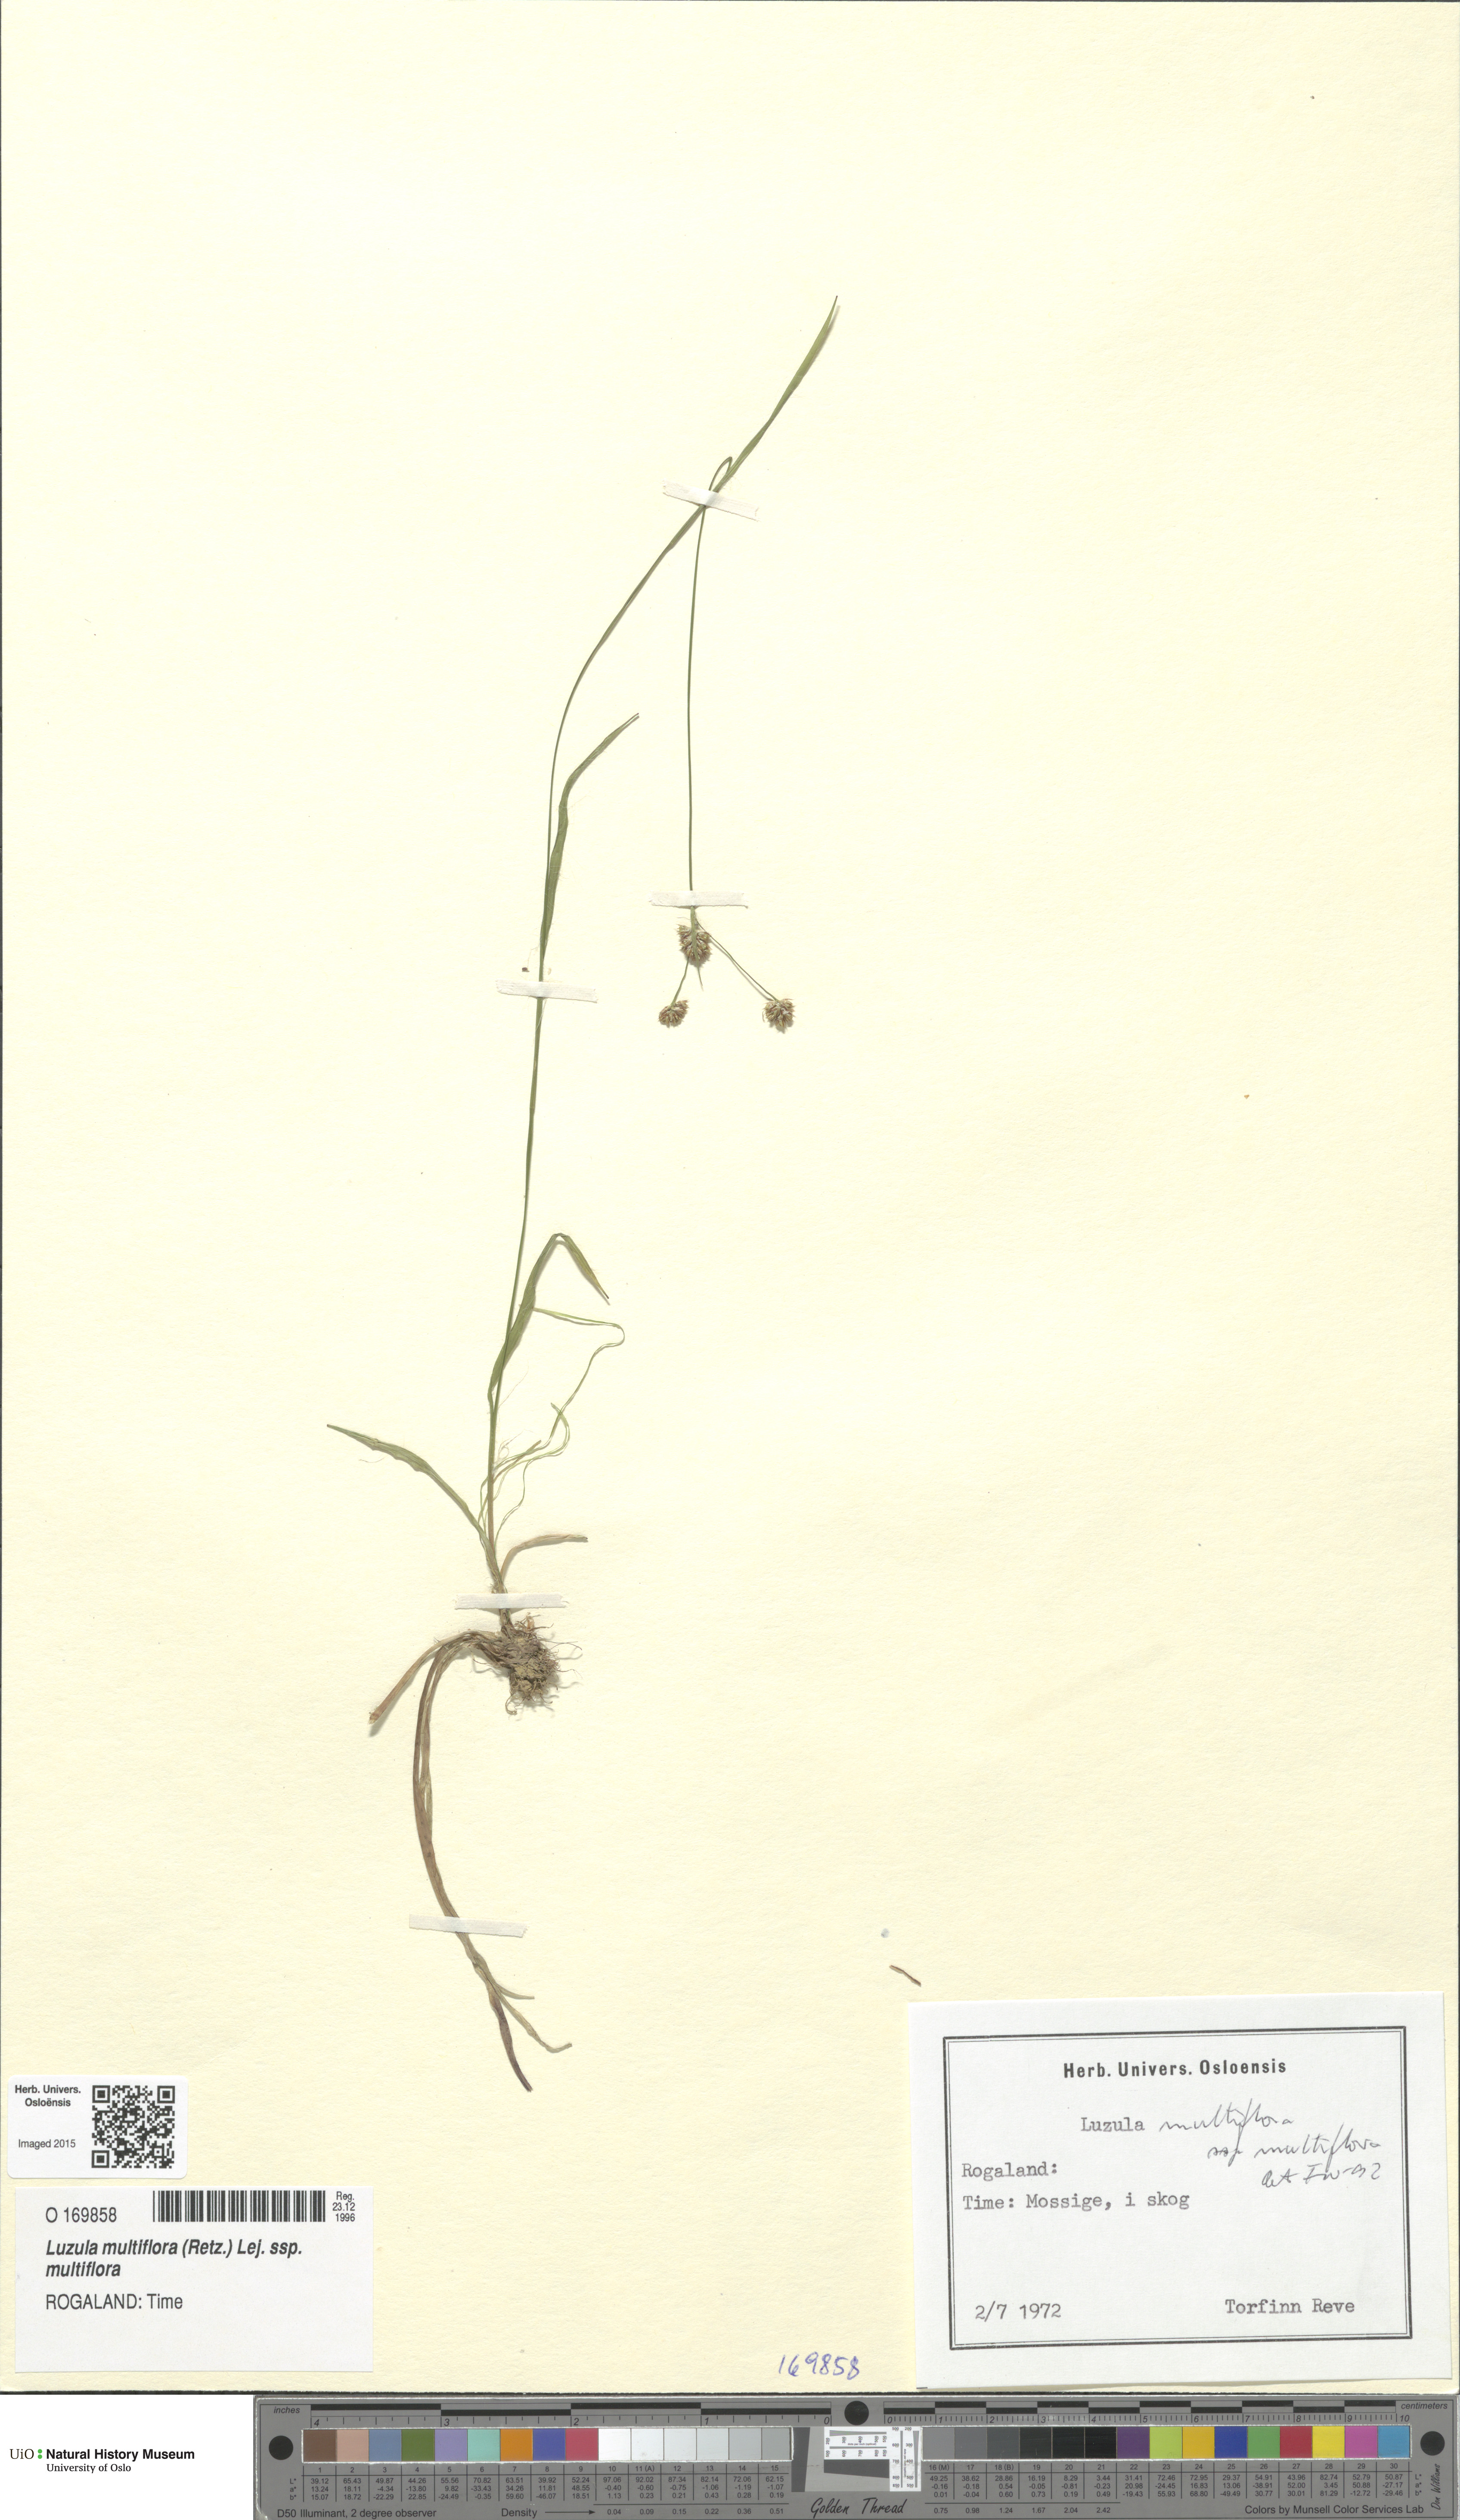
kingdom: Plantae
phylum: Tracheophyta
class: Liliopsida
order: Poales
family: Juncaceae
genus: Luzula
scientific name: Luzula multiflora
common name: Heath wood-rush
